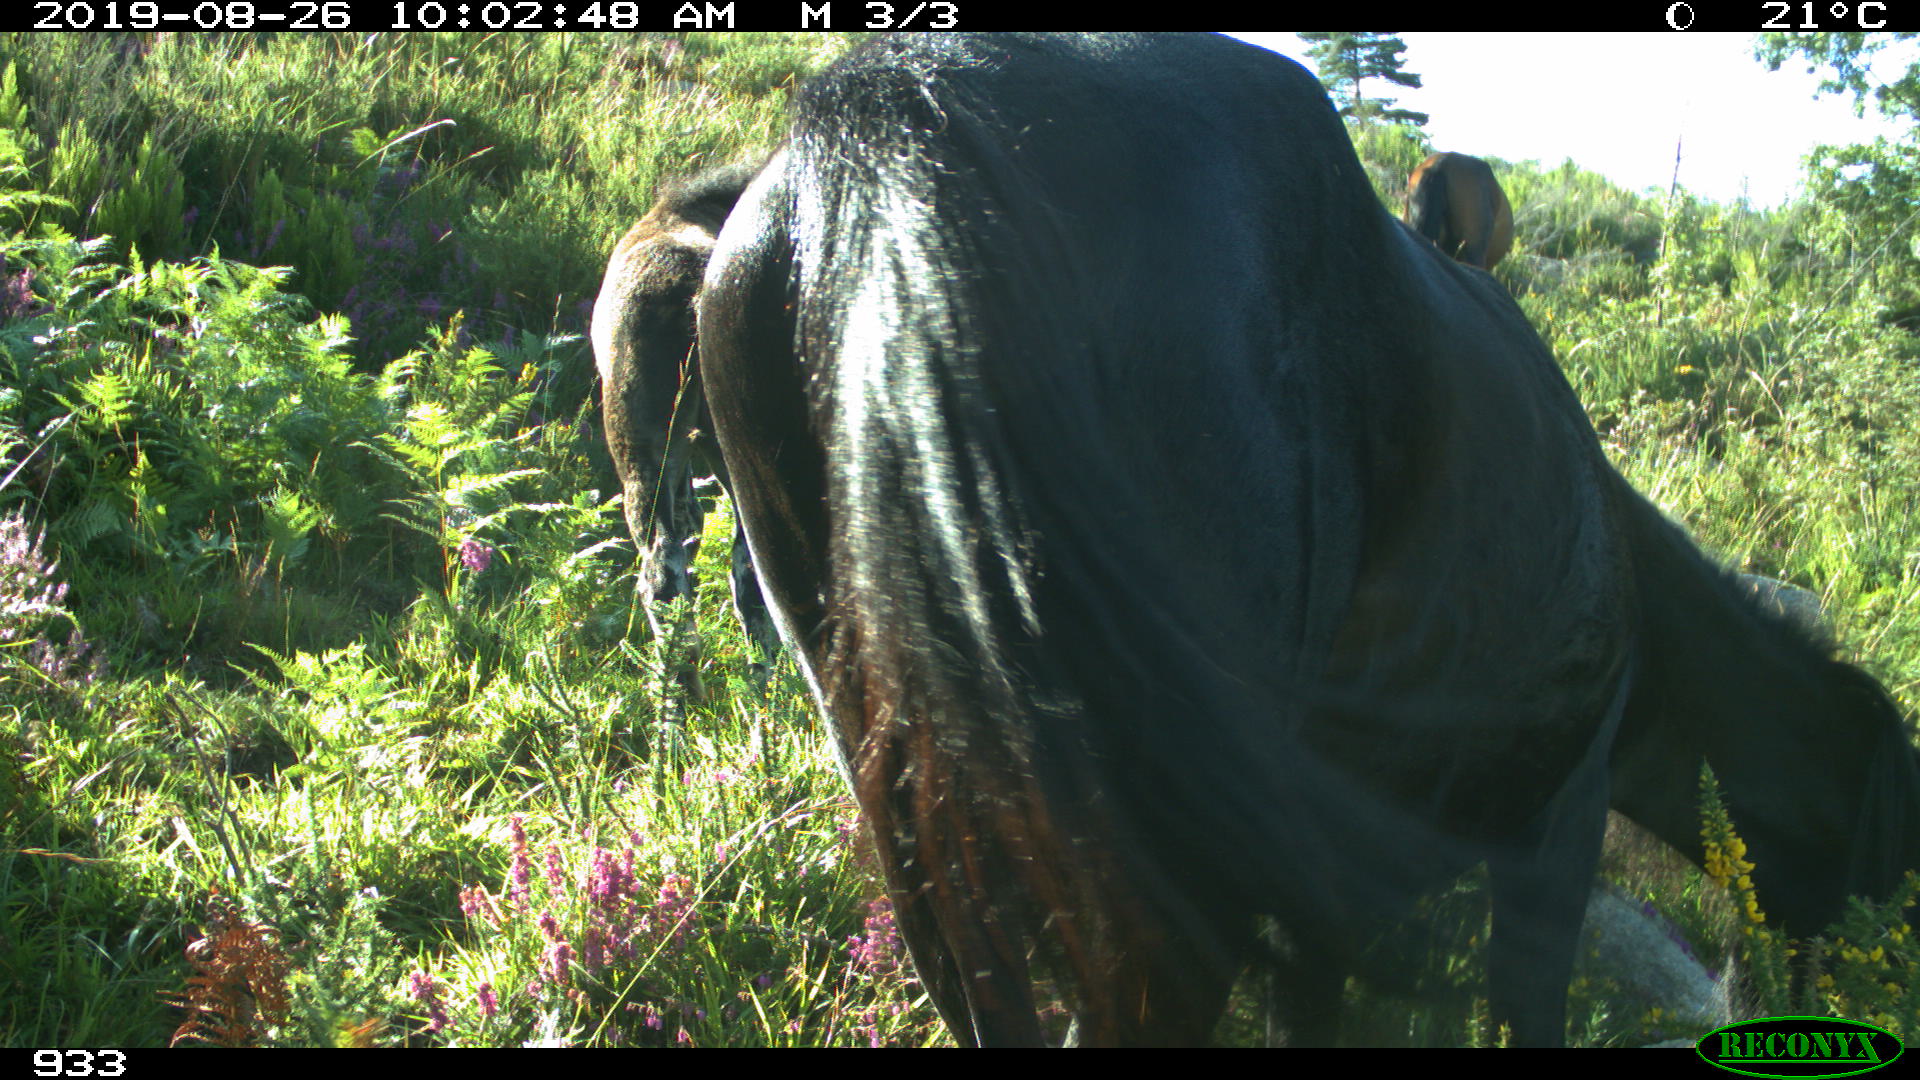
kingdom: Animalia
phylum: Chordata
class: Mammalia
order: Perissodactyla
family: Equidae
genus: Equus
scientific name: Equus caballus
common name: Horse
